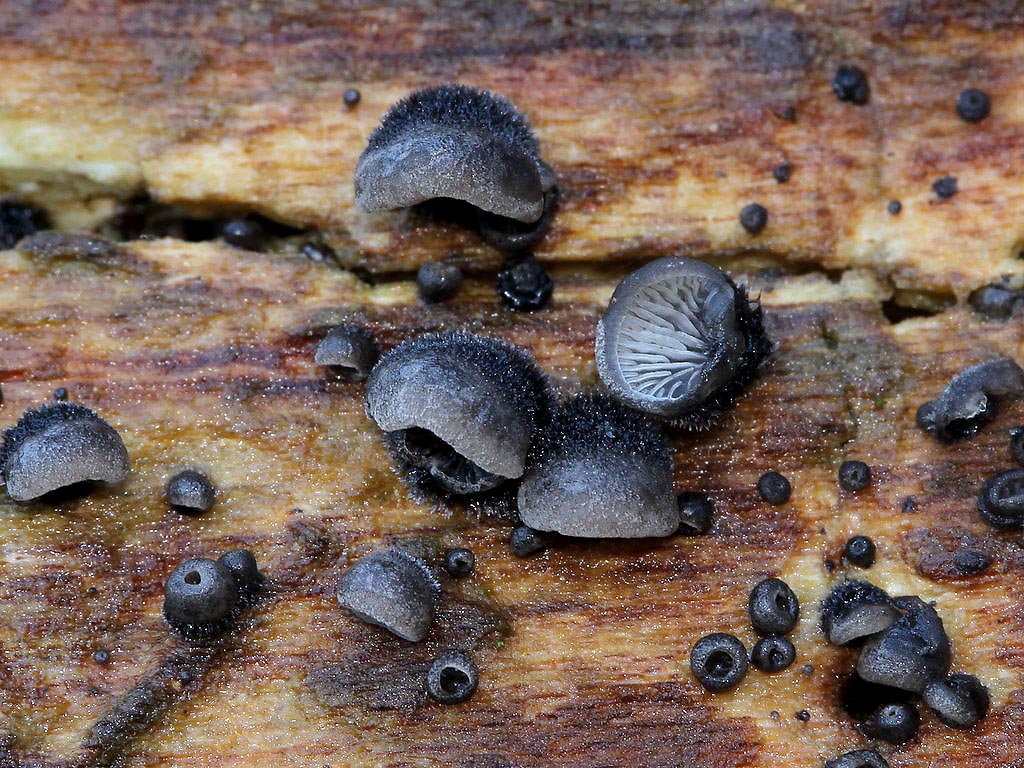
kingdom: Fungi
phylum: Basidiomycota
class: Agaricomycetes
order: Agaricales
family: Pleurotaceae
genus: Resupinatus
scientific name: Resupinatus trichotis
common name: mørkfiltet barkhat
